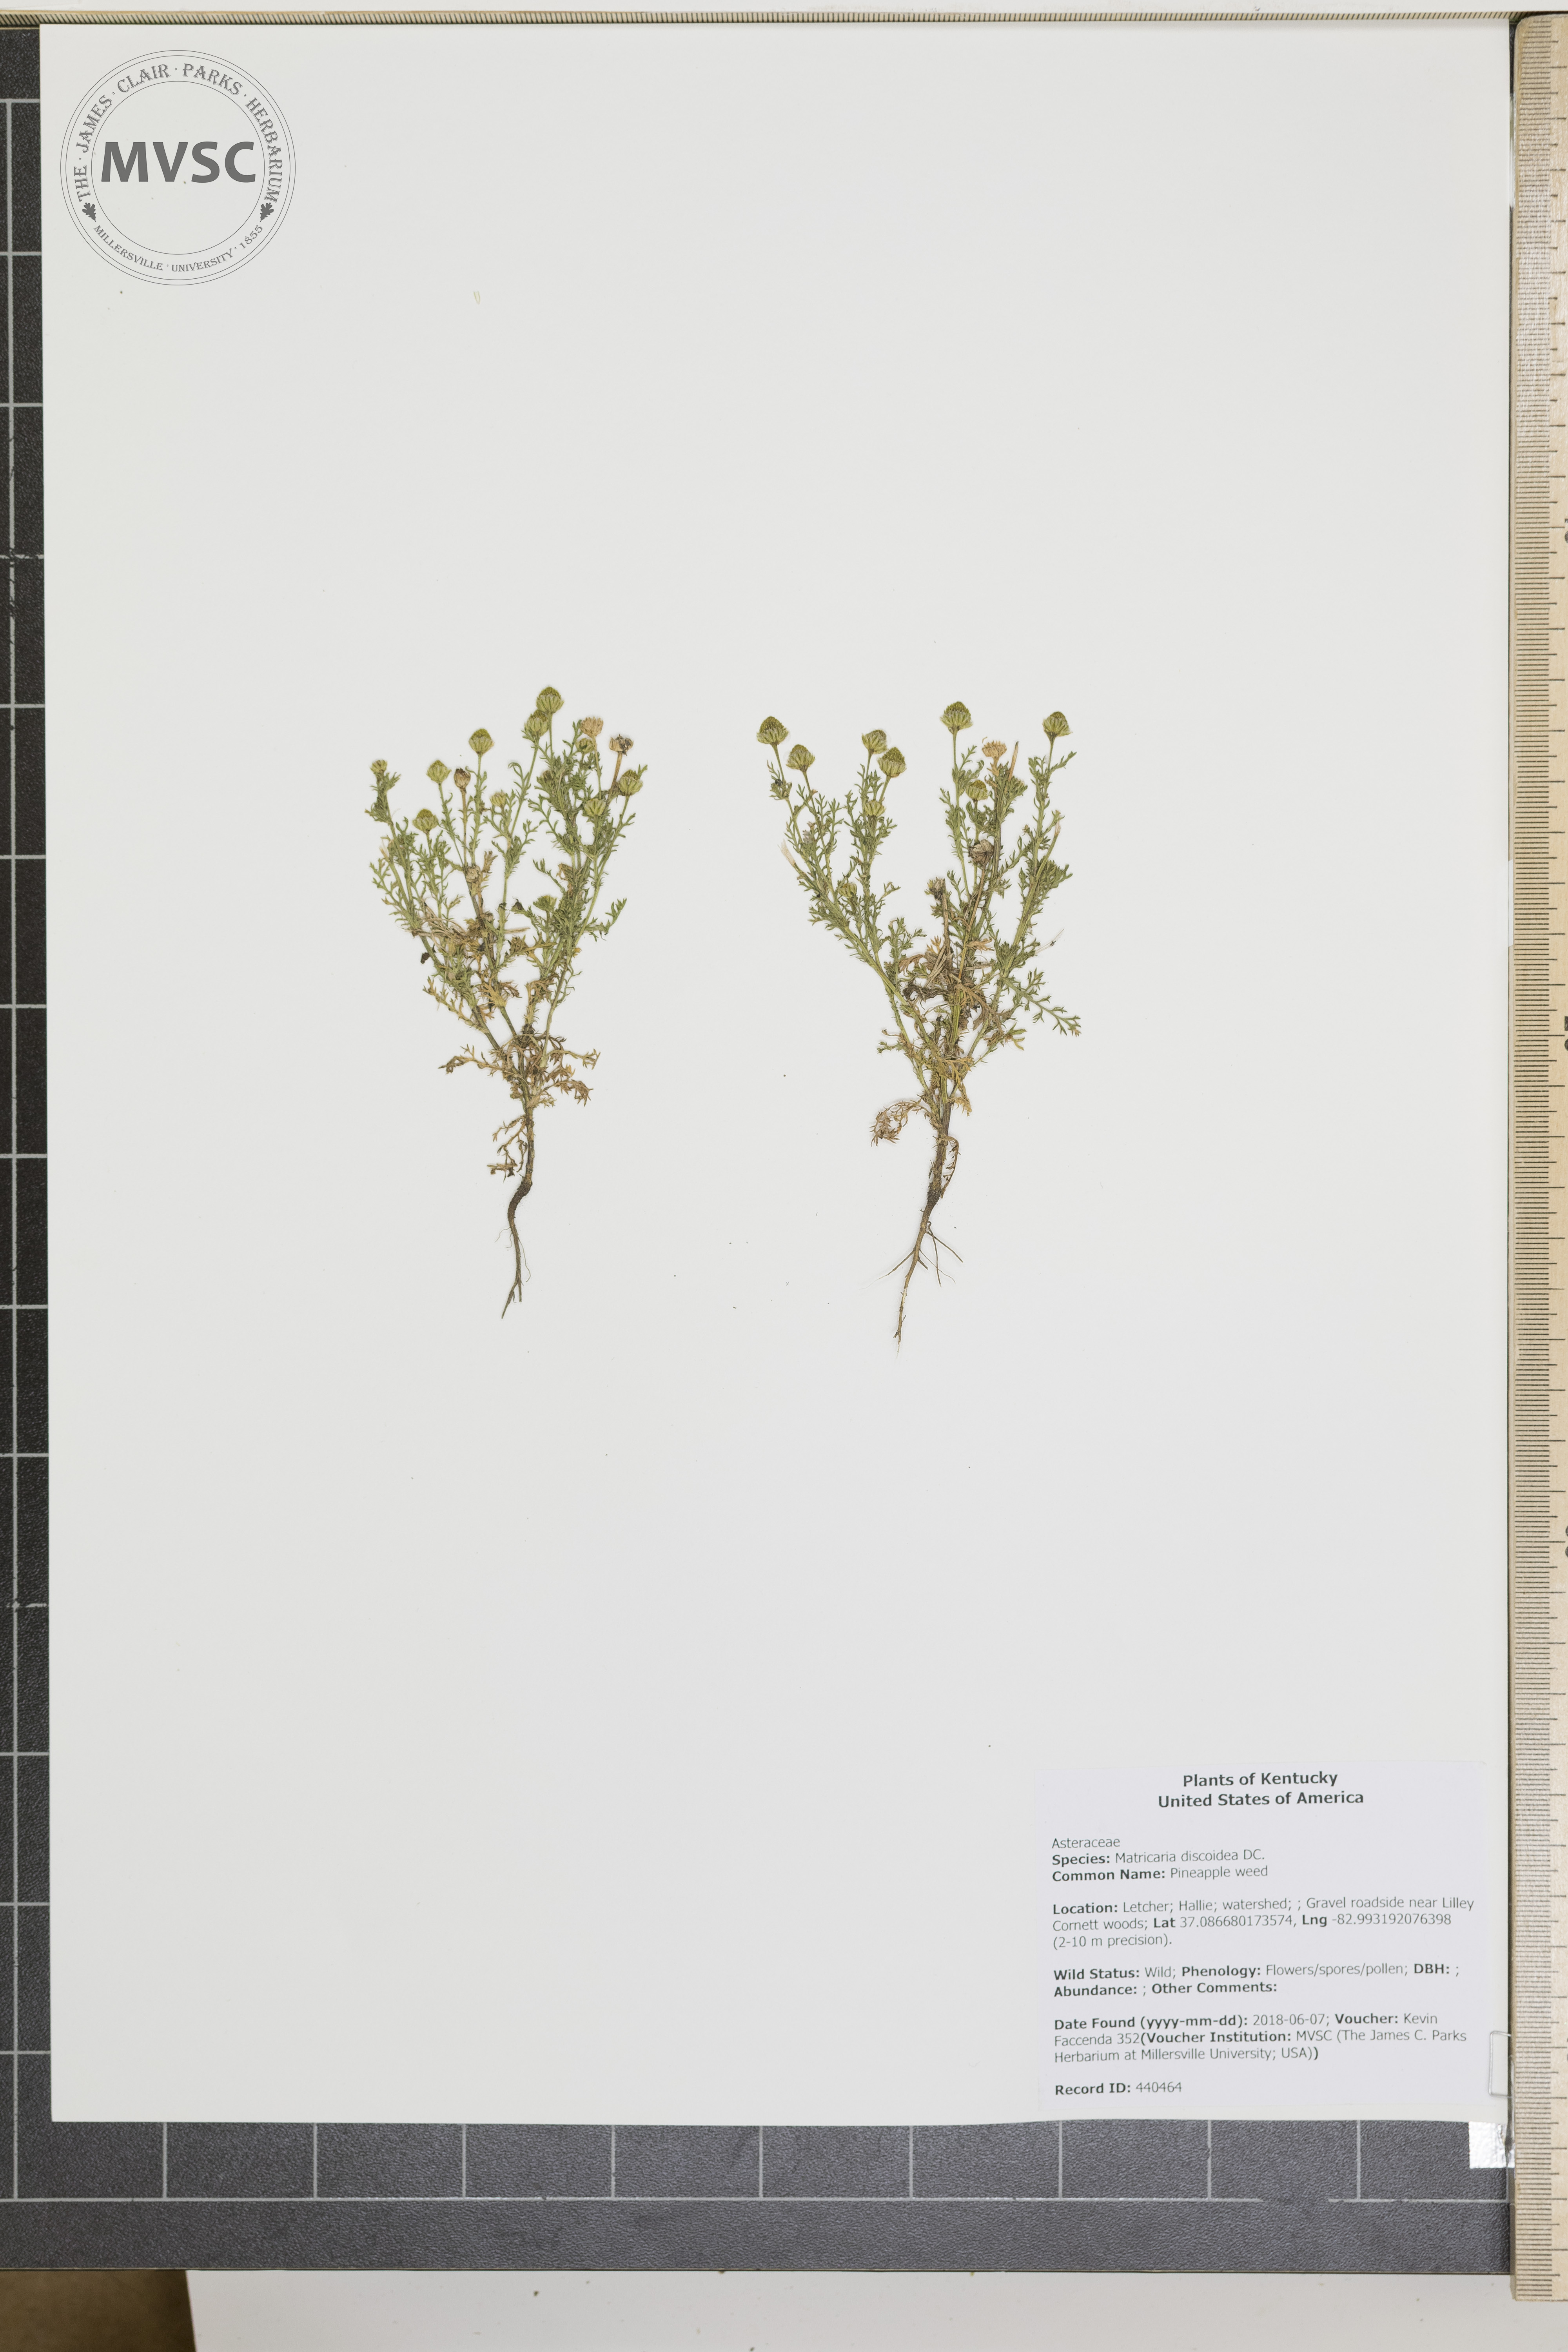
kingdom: Plantae
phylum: Tracheophyta
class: Magnoliopsida
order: Asterales
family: Asteraceae
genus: Matricaria
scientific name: Matricaria discoidea
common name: Pineapple weed
